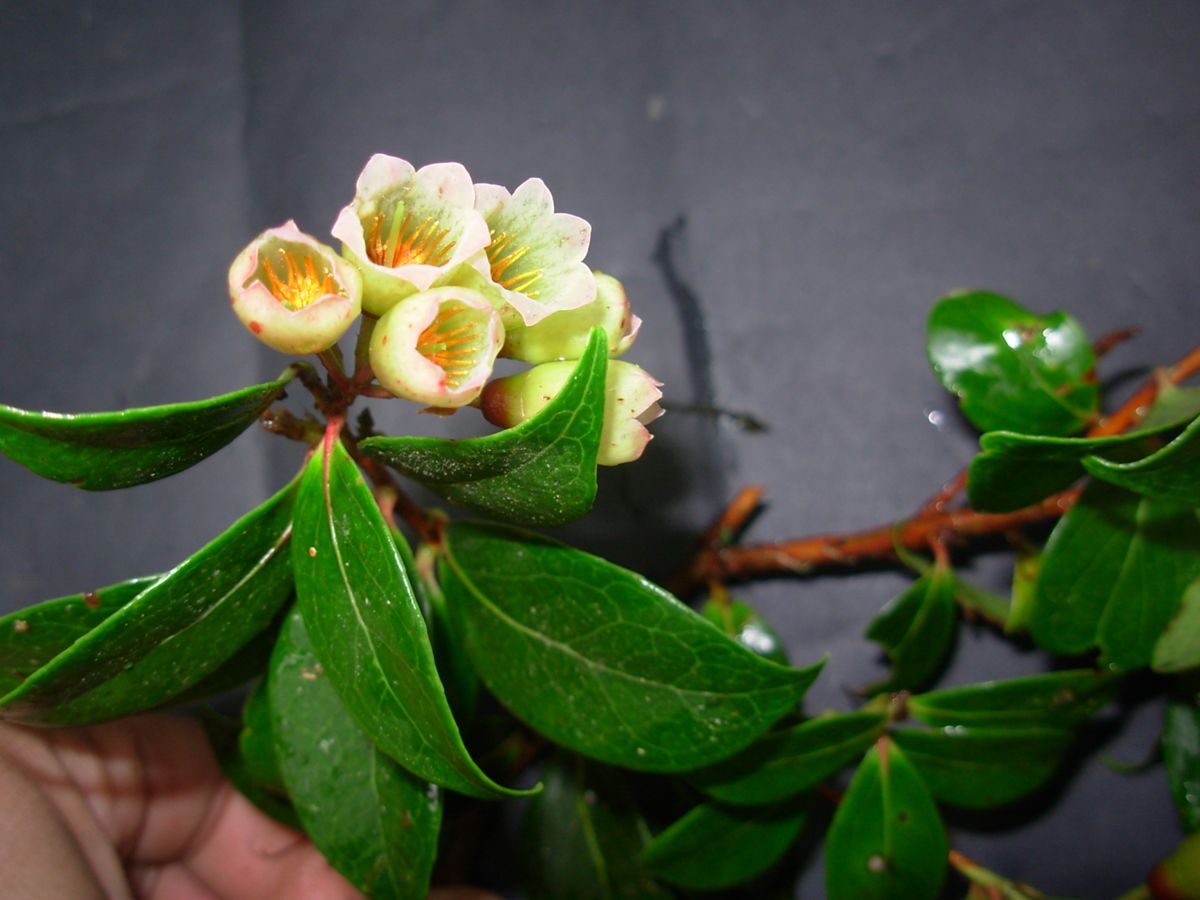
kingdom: Plantae
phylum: Tracheophyta
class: Magnoliopsida
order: Ericales
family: Ericaceae
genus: Symphysia
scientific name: Symphysia poasana
